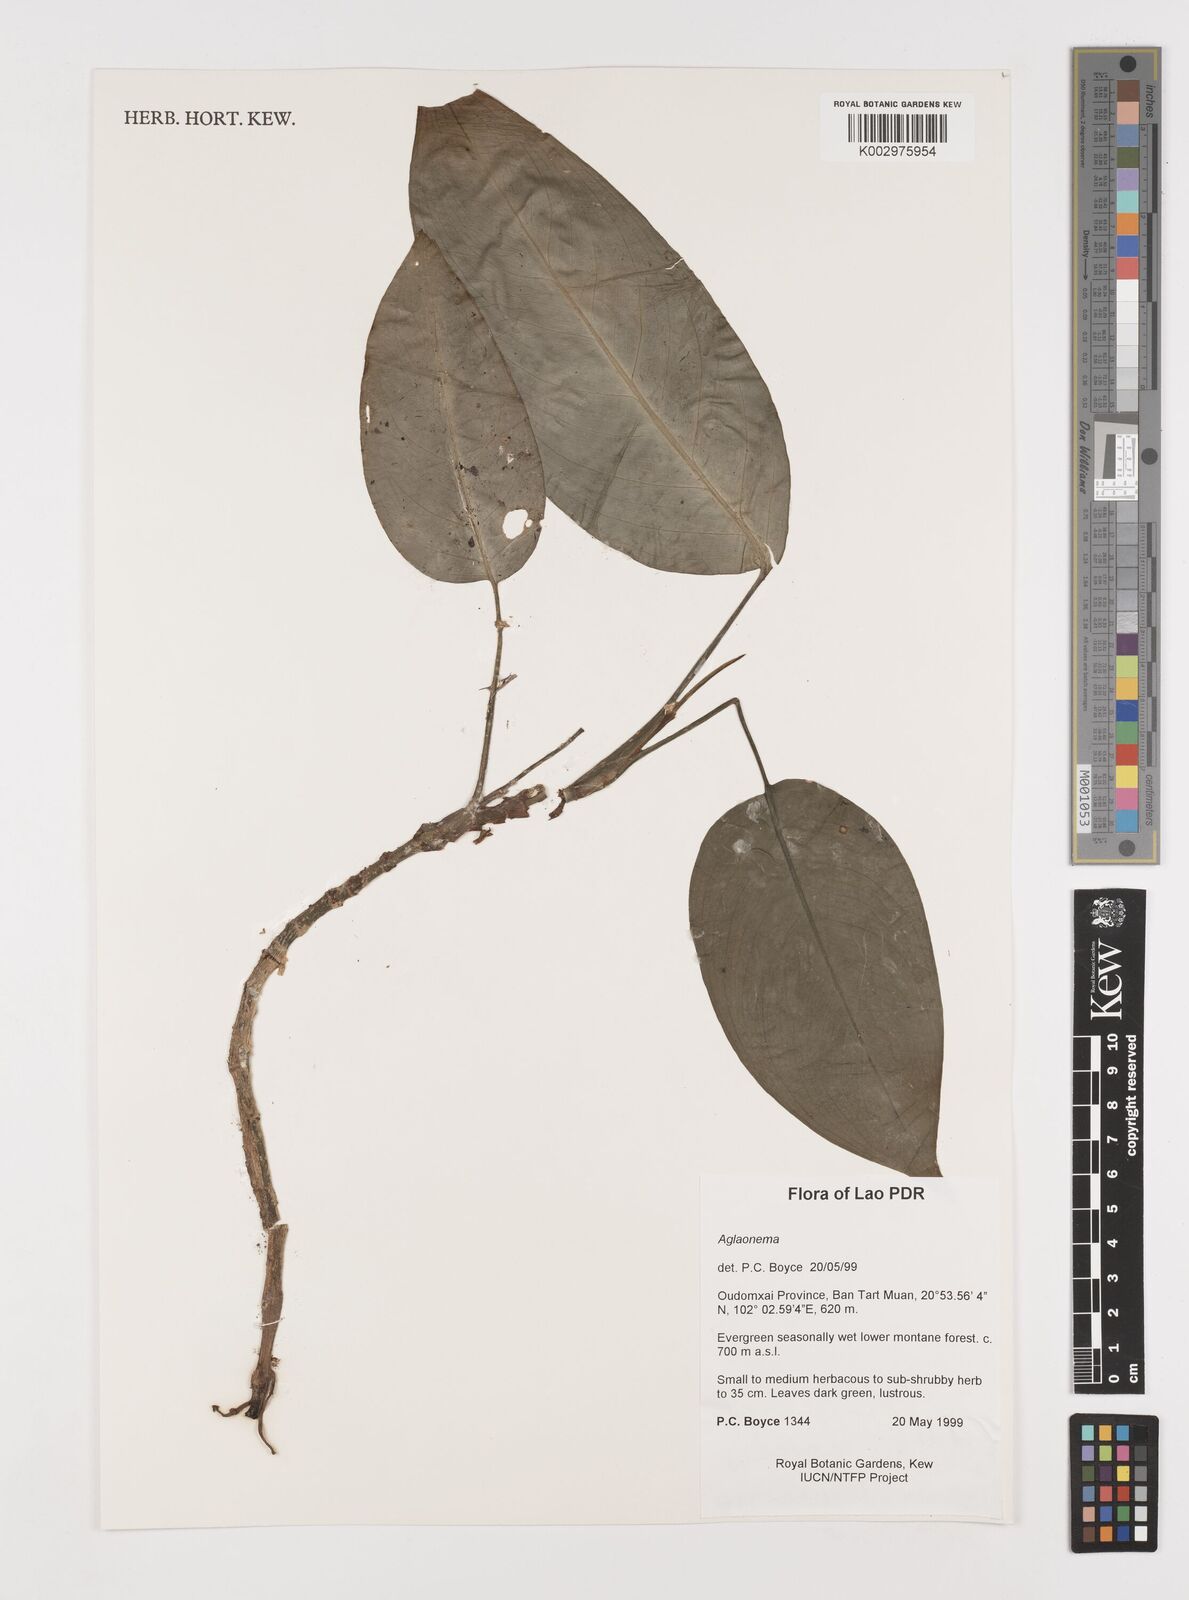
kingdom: Plantae
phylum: Tracheophyta
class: Liliopsida
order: Alismatales
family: Araceae
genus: Aglaonema
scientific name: Aglaonema modestum
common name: Chinese evergreen
